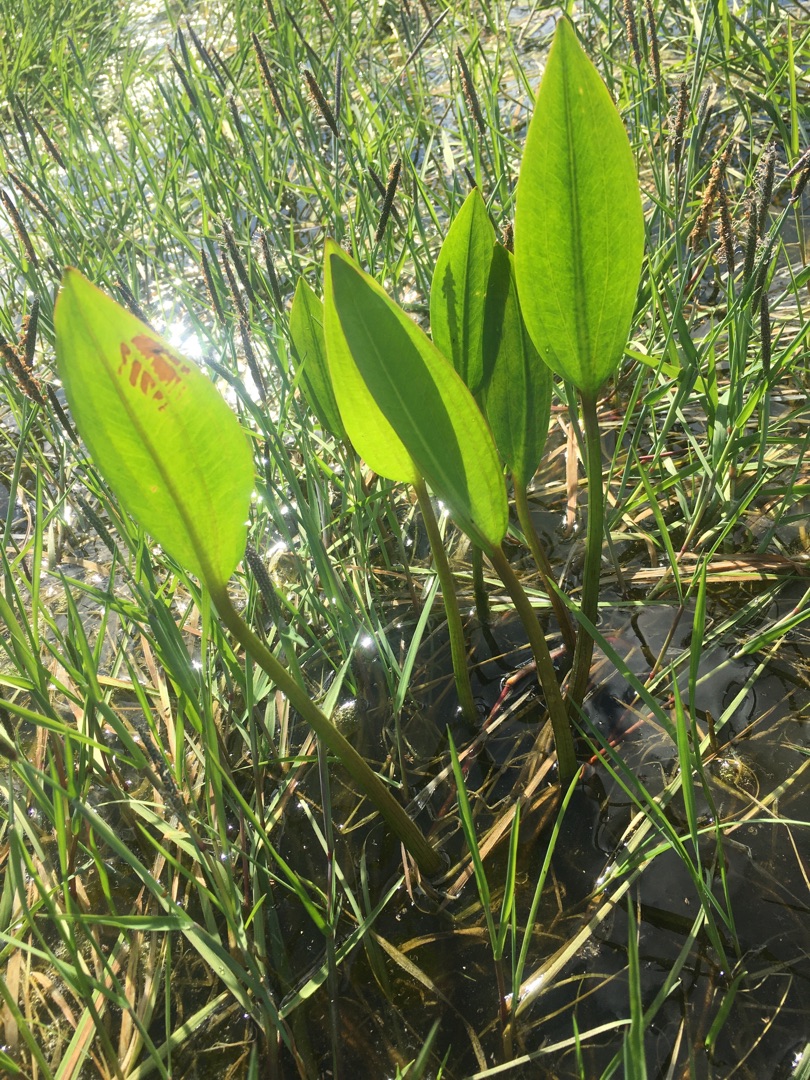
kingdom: Plantae
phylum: Tracheophyta
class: Liliopsida
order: Alismatales
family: Alismataceae
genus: Alisma
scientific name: Alisma plantago-aquatica
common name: Vejbred-skeblad
